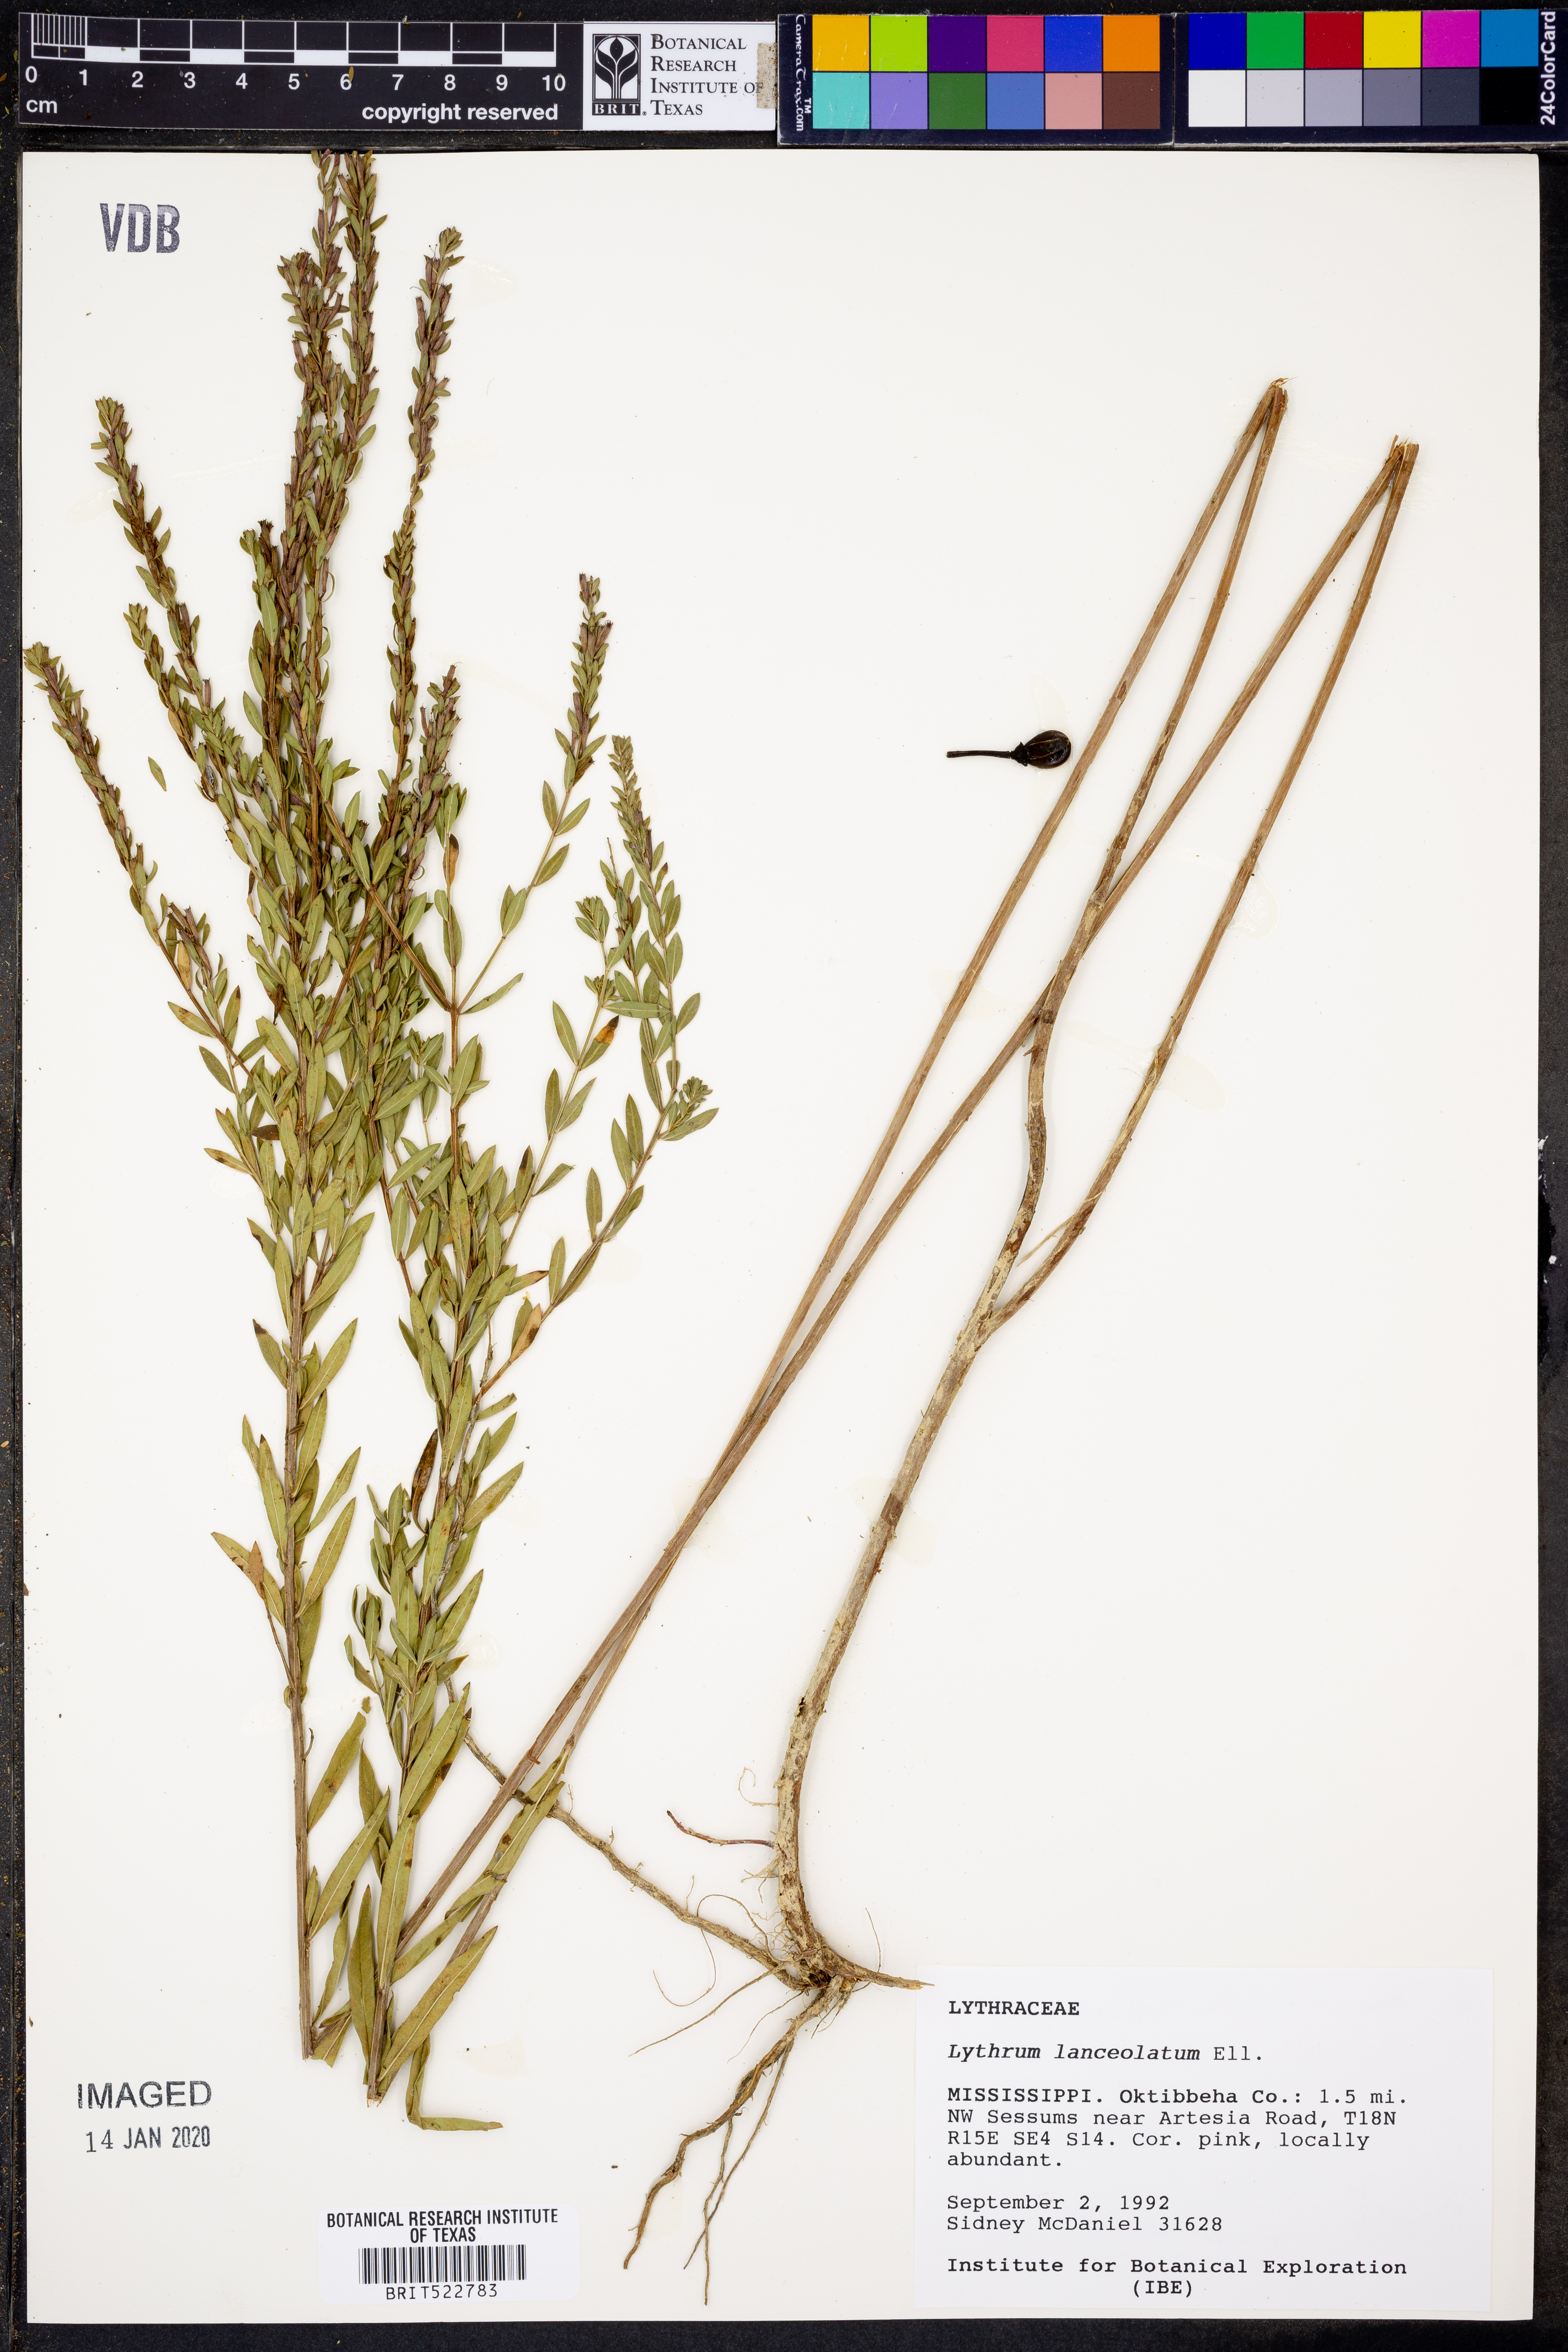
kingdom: Plantae
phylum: Tracheophyta
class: Magnoliopsida
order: Myrtales
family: Lythraceae
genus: Lythrum
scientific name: Lythrum alatum
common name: Winged loosestrife
